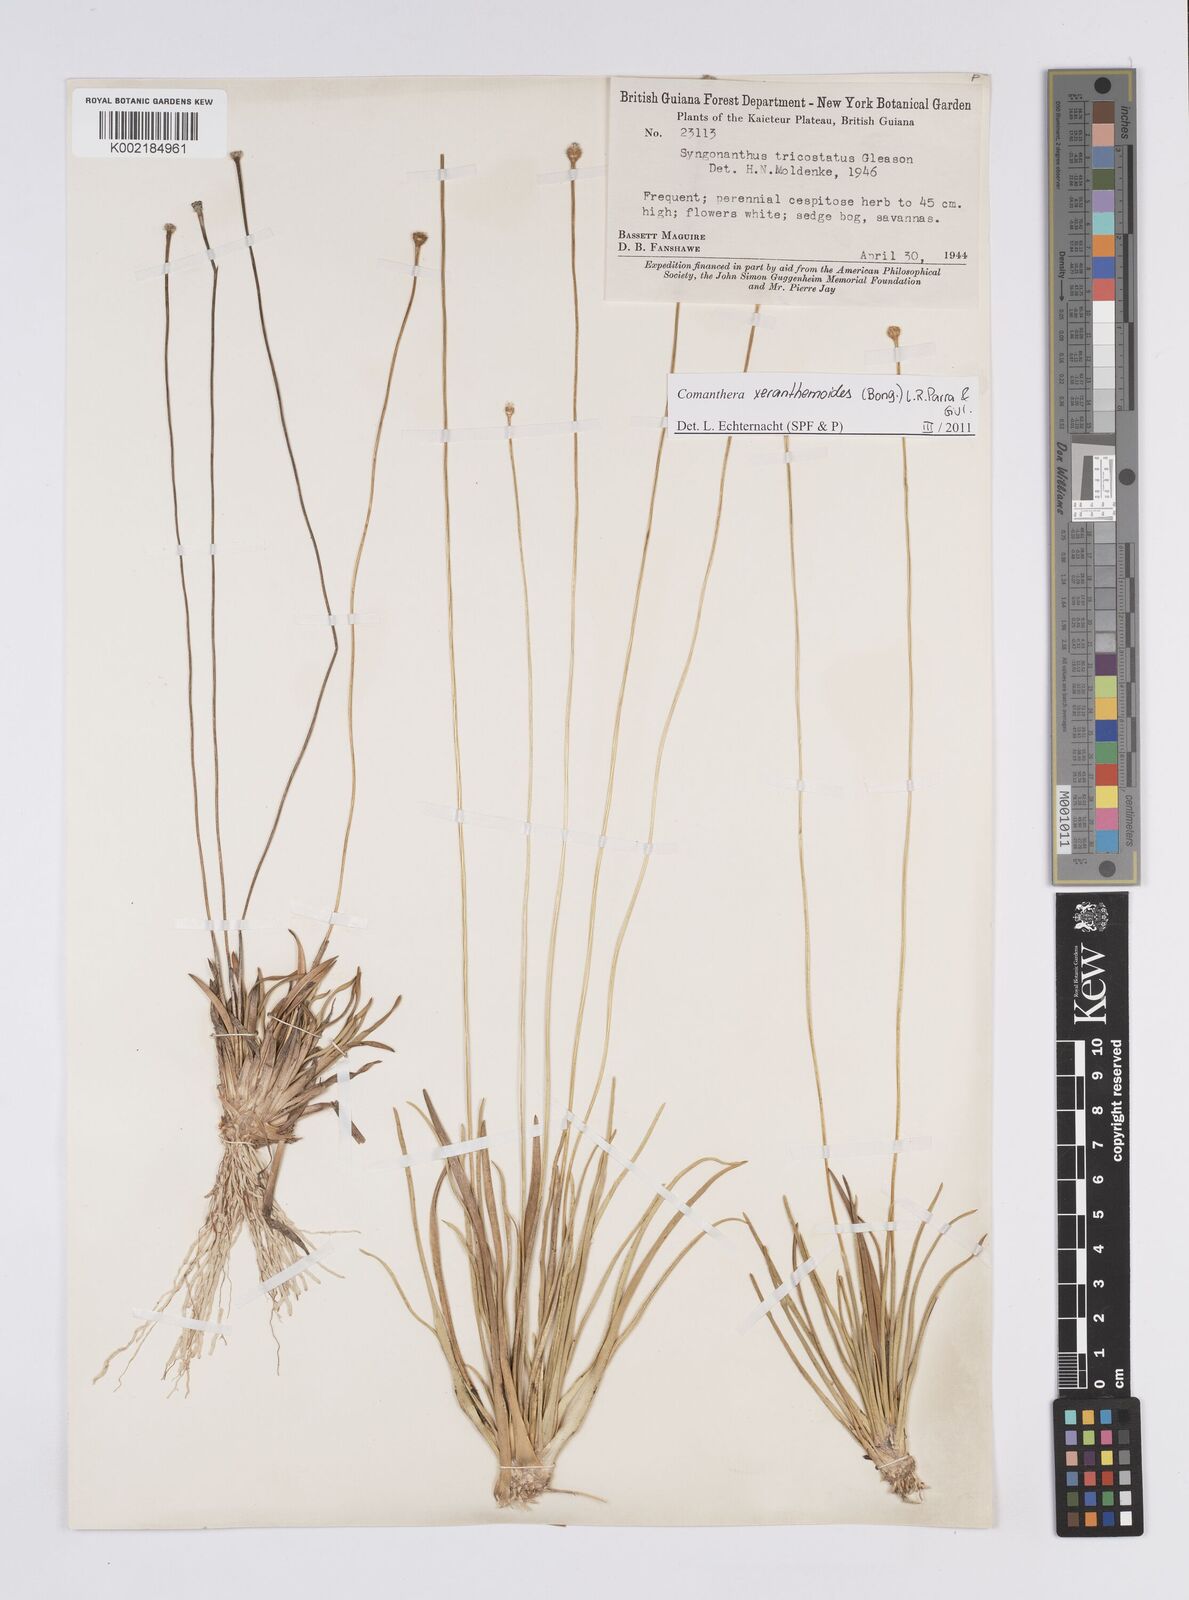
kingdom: Plantae
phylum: Tracheophyta
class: Liliopsida
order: Poales
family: Eriocaulaceae
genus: Comanthera
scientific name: Comanthera xeranthemoides
